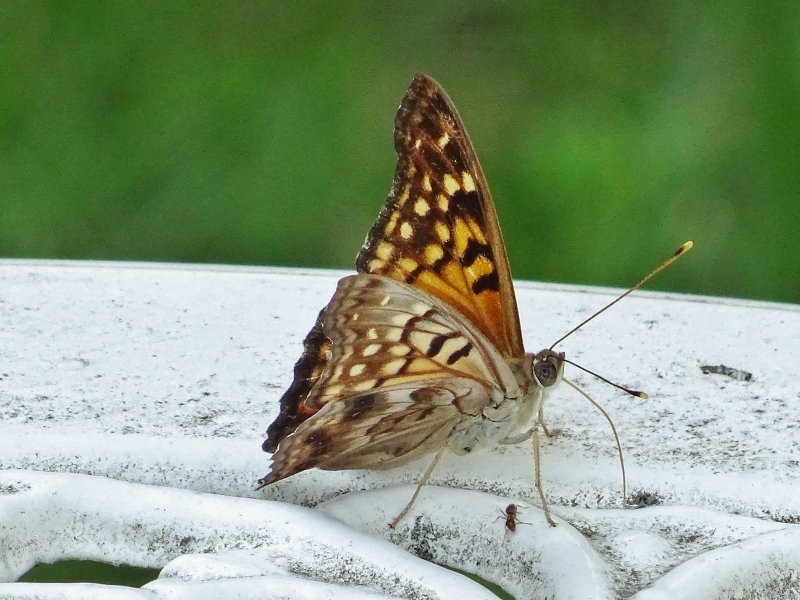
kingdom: Animalia
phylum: Arthropoda
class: Insecta
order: Lepidoptera
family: Nymphalidae
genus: Asterocampa
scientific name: Asterocampa clyton
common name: Tawny Emperor
